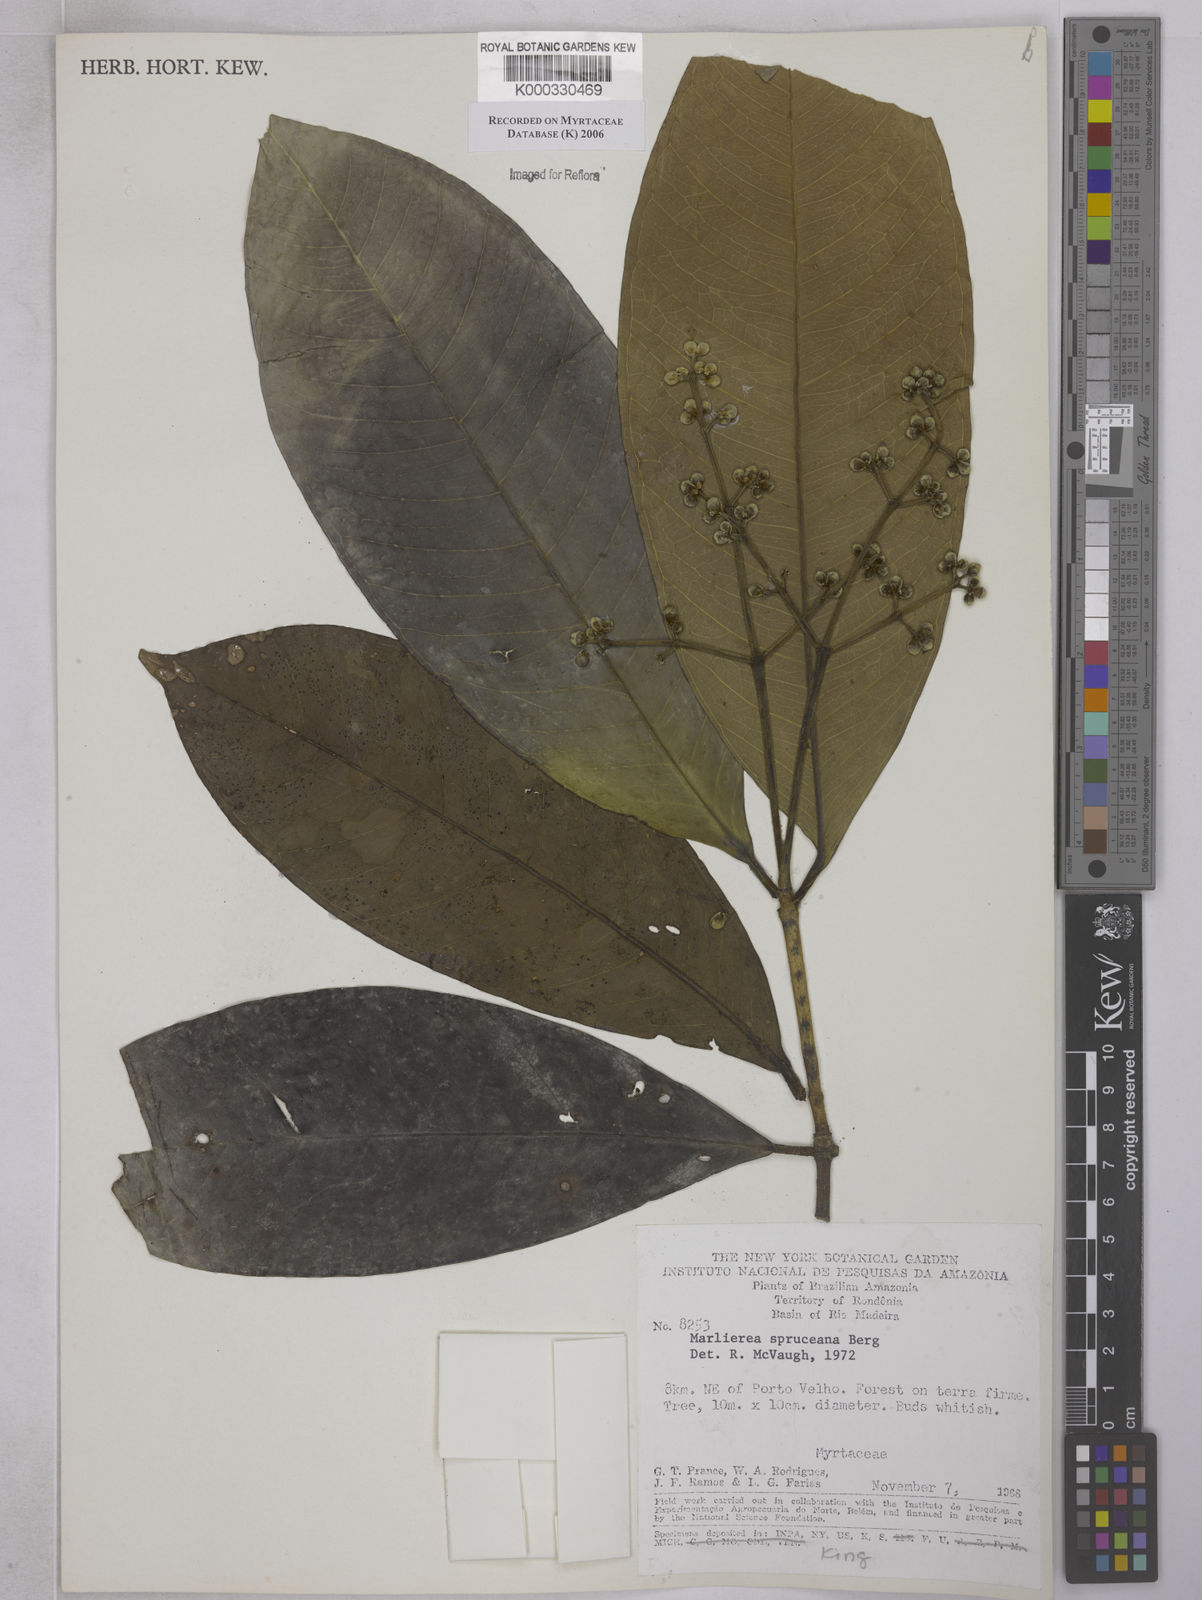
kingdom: Plantae
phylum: Tracheophyta
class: Magnoliopsida
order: Myrtales
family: Myrtaceae
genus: Myrcia
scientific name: Myrcia argentigemma
